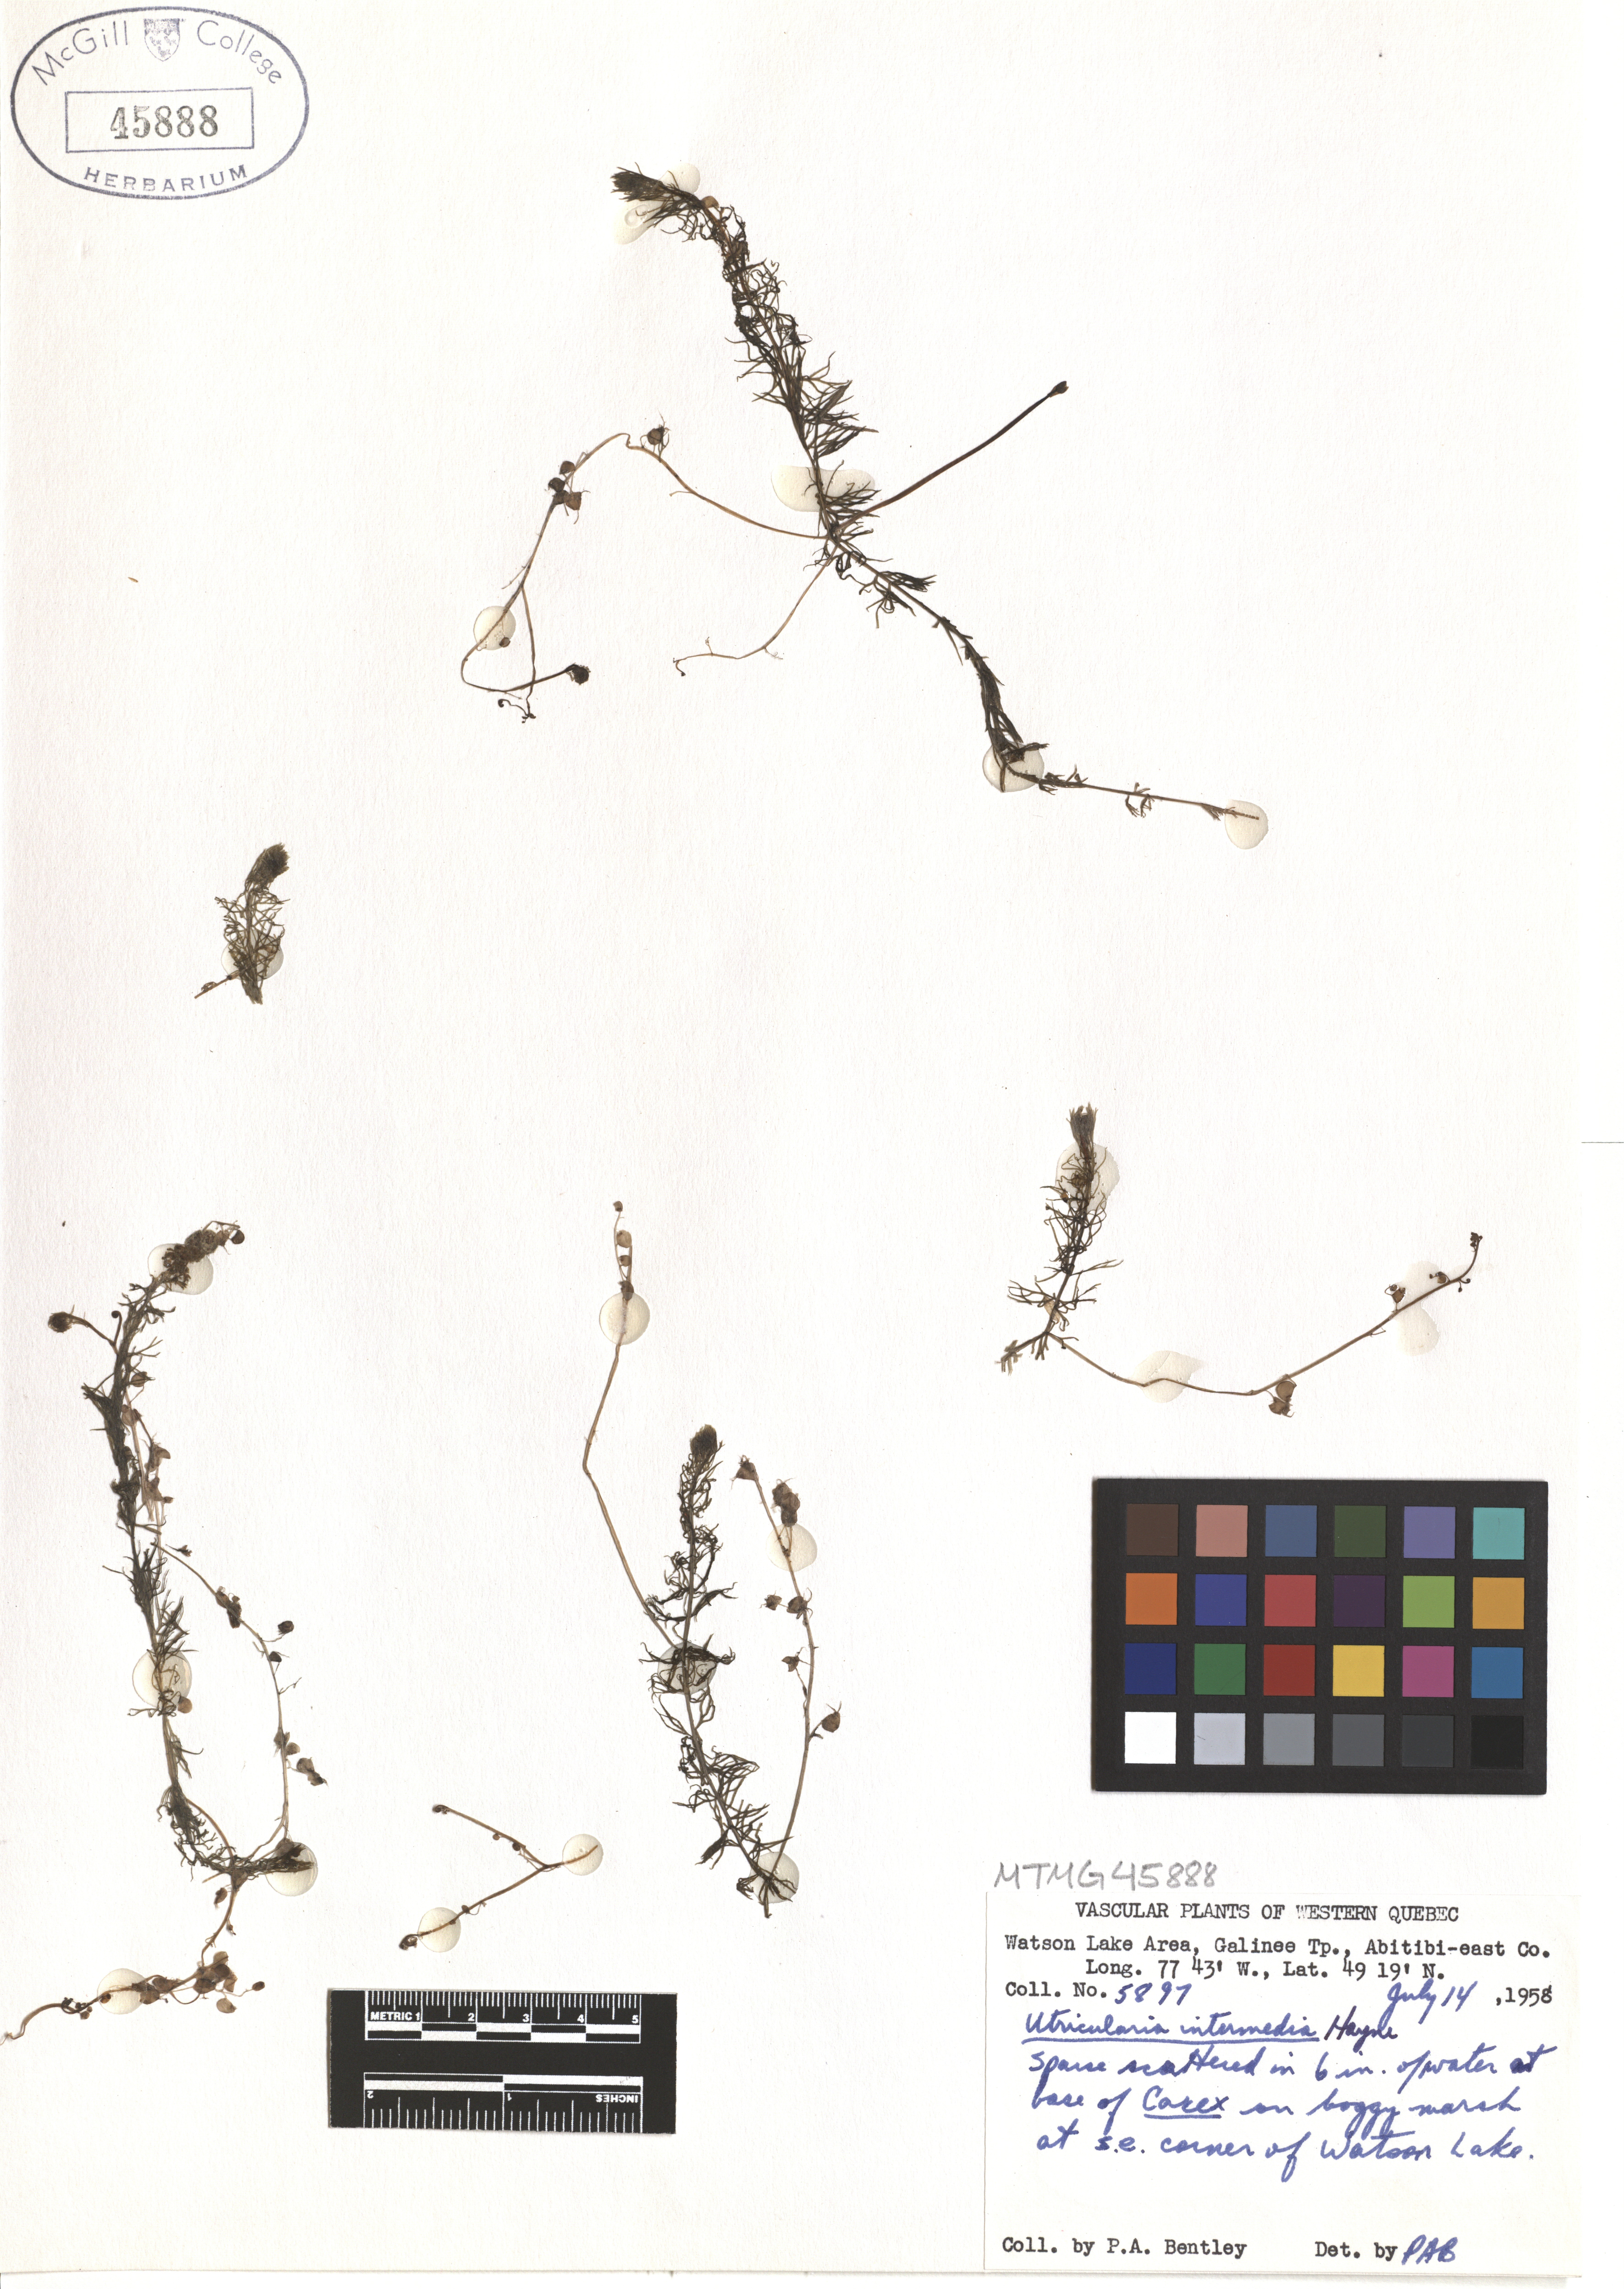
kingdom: Plantae
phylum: Tracheophyta
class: Magnoliopsida
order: Lamiales
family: Lentibulariaceae
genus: Utricularia
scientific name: Utricularia intermedia
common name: Intermediate bladderwort
